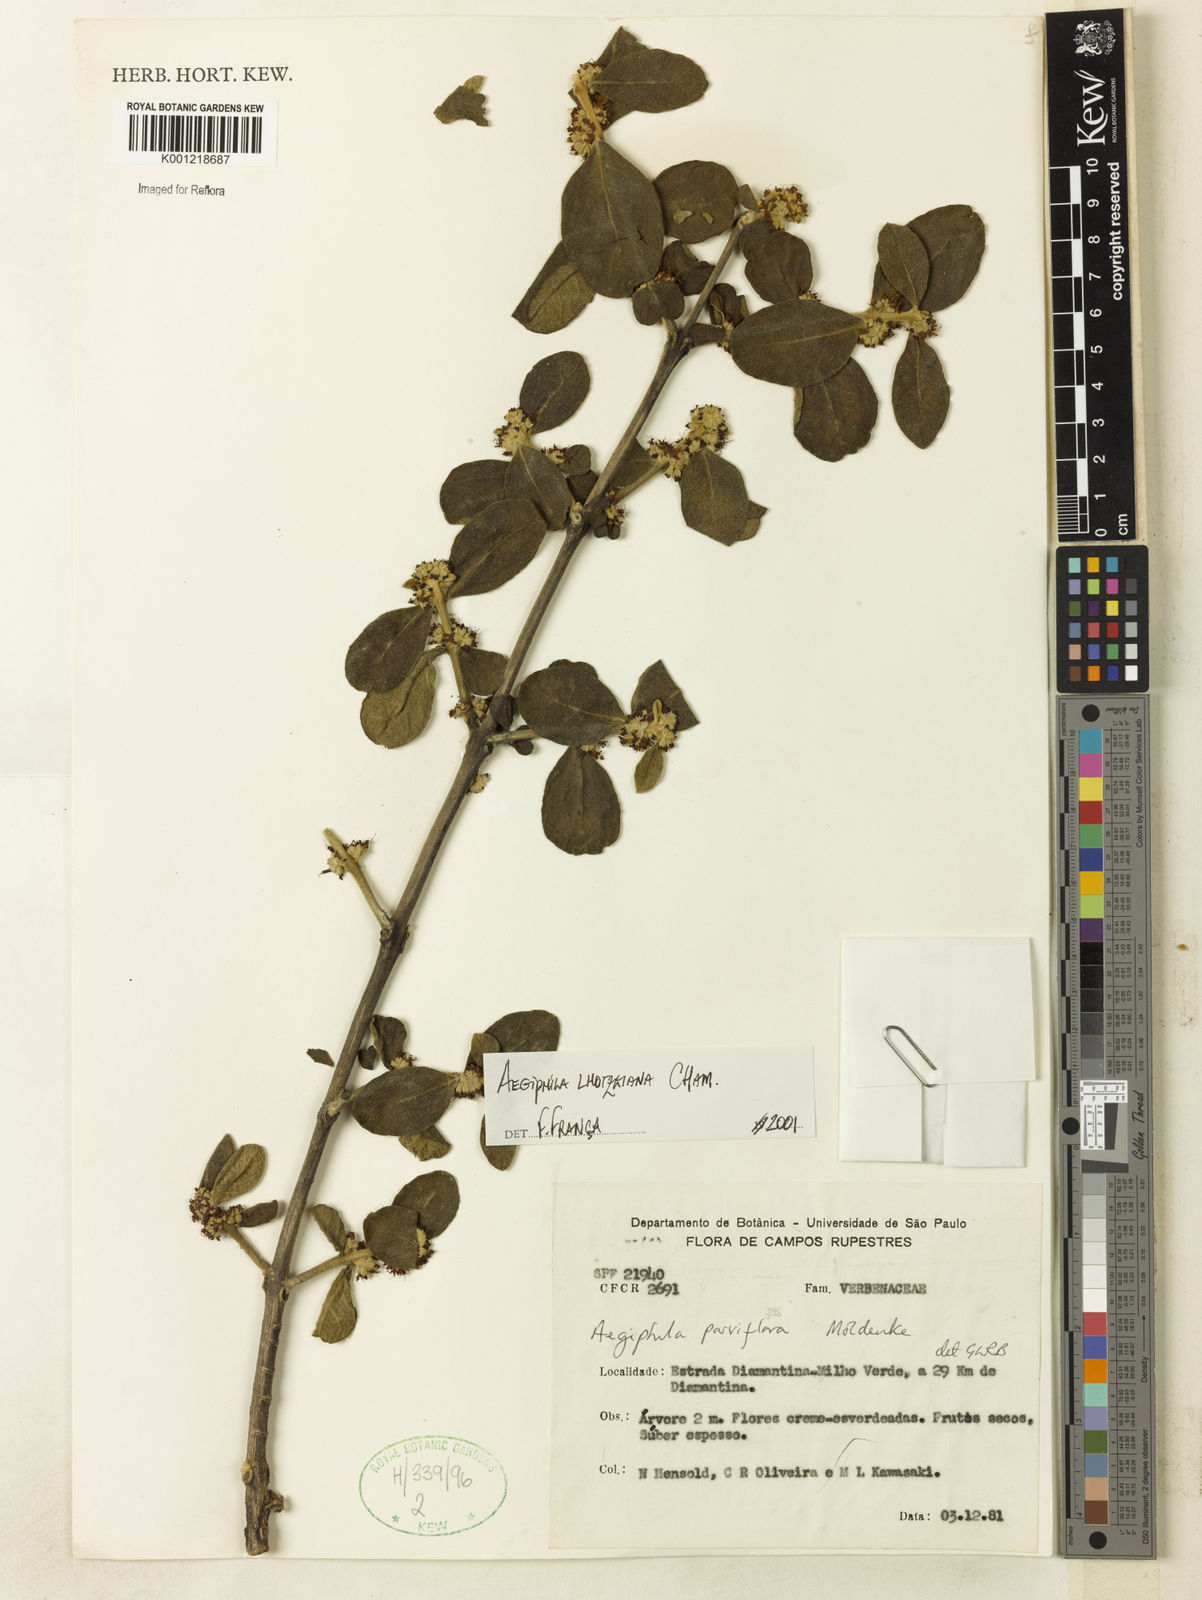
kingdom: Plantae
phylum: Tracheophyta
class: Magnoliopsida
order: Lamiales
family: Lamiaceae
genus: Aegiphila
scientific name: Aegiphila verticillata
